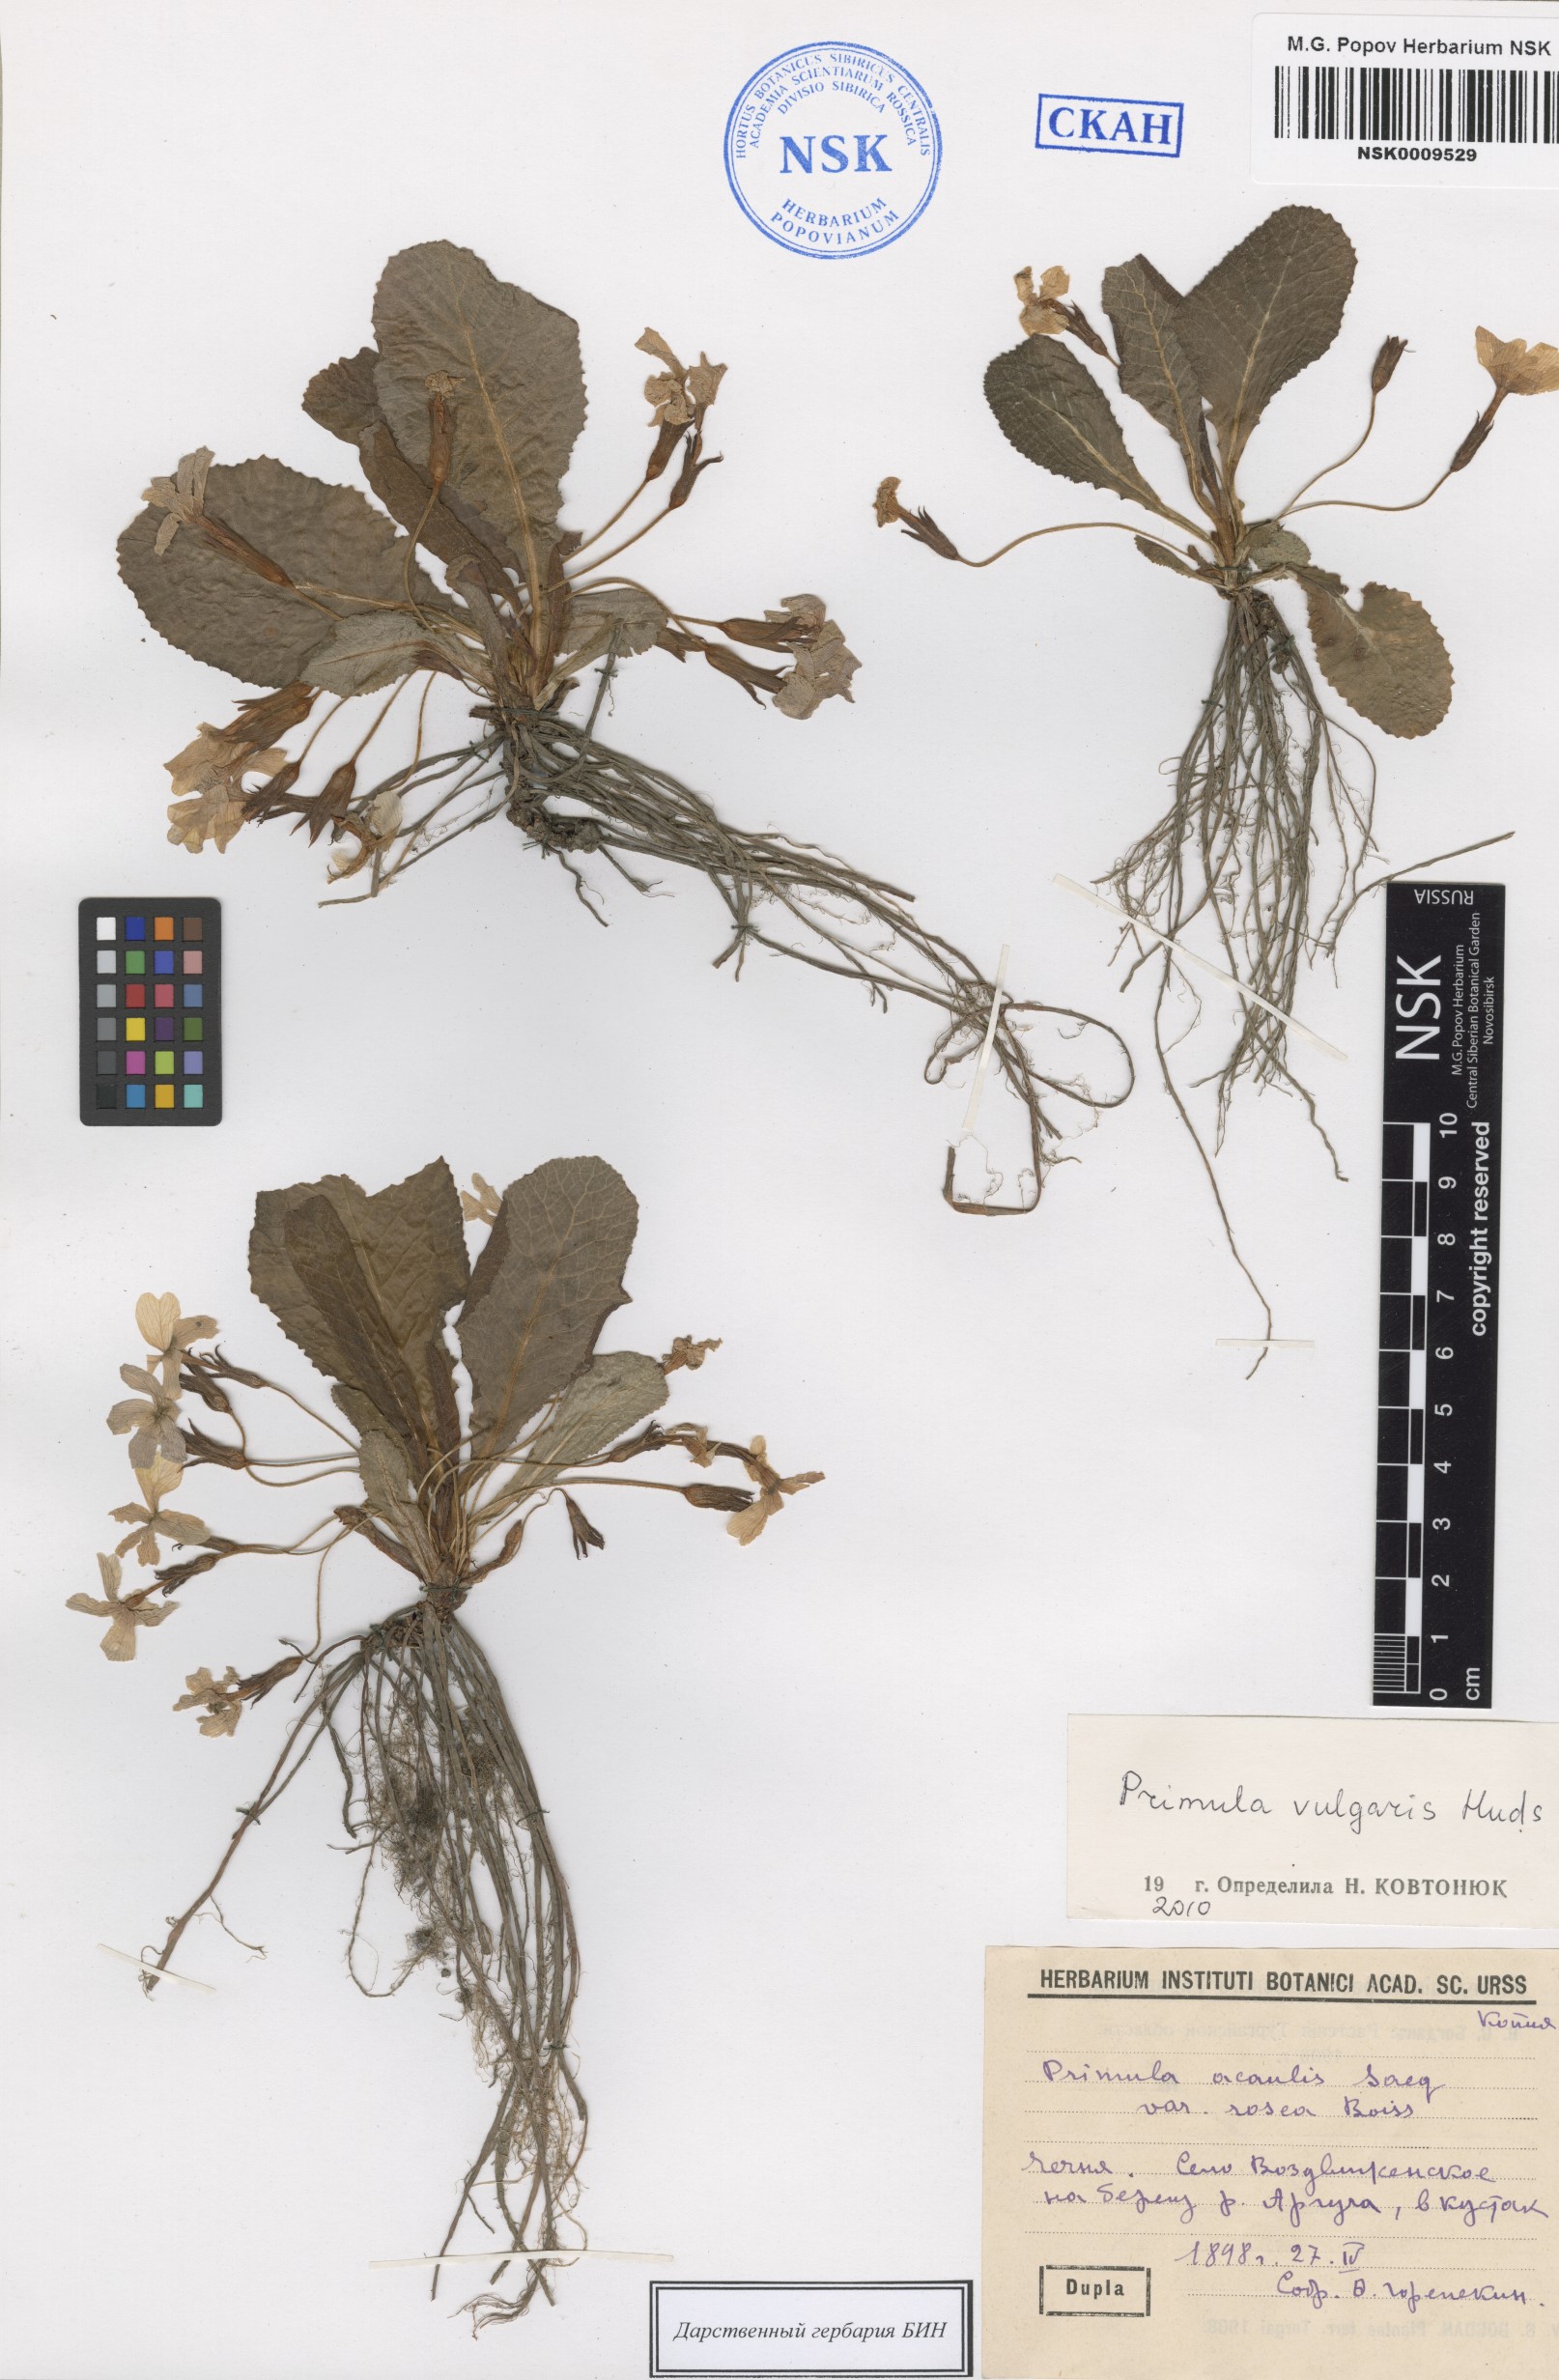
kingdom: Plantae
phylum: Tracheophyta
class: Magnoliopsida
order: Ericales
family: Primulaceae
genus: Primula
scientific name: Primula vulgaris
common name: Primrose
